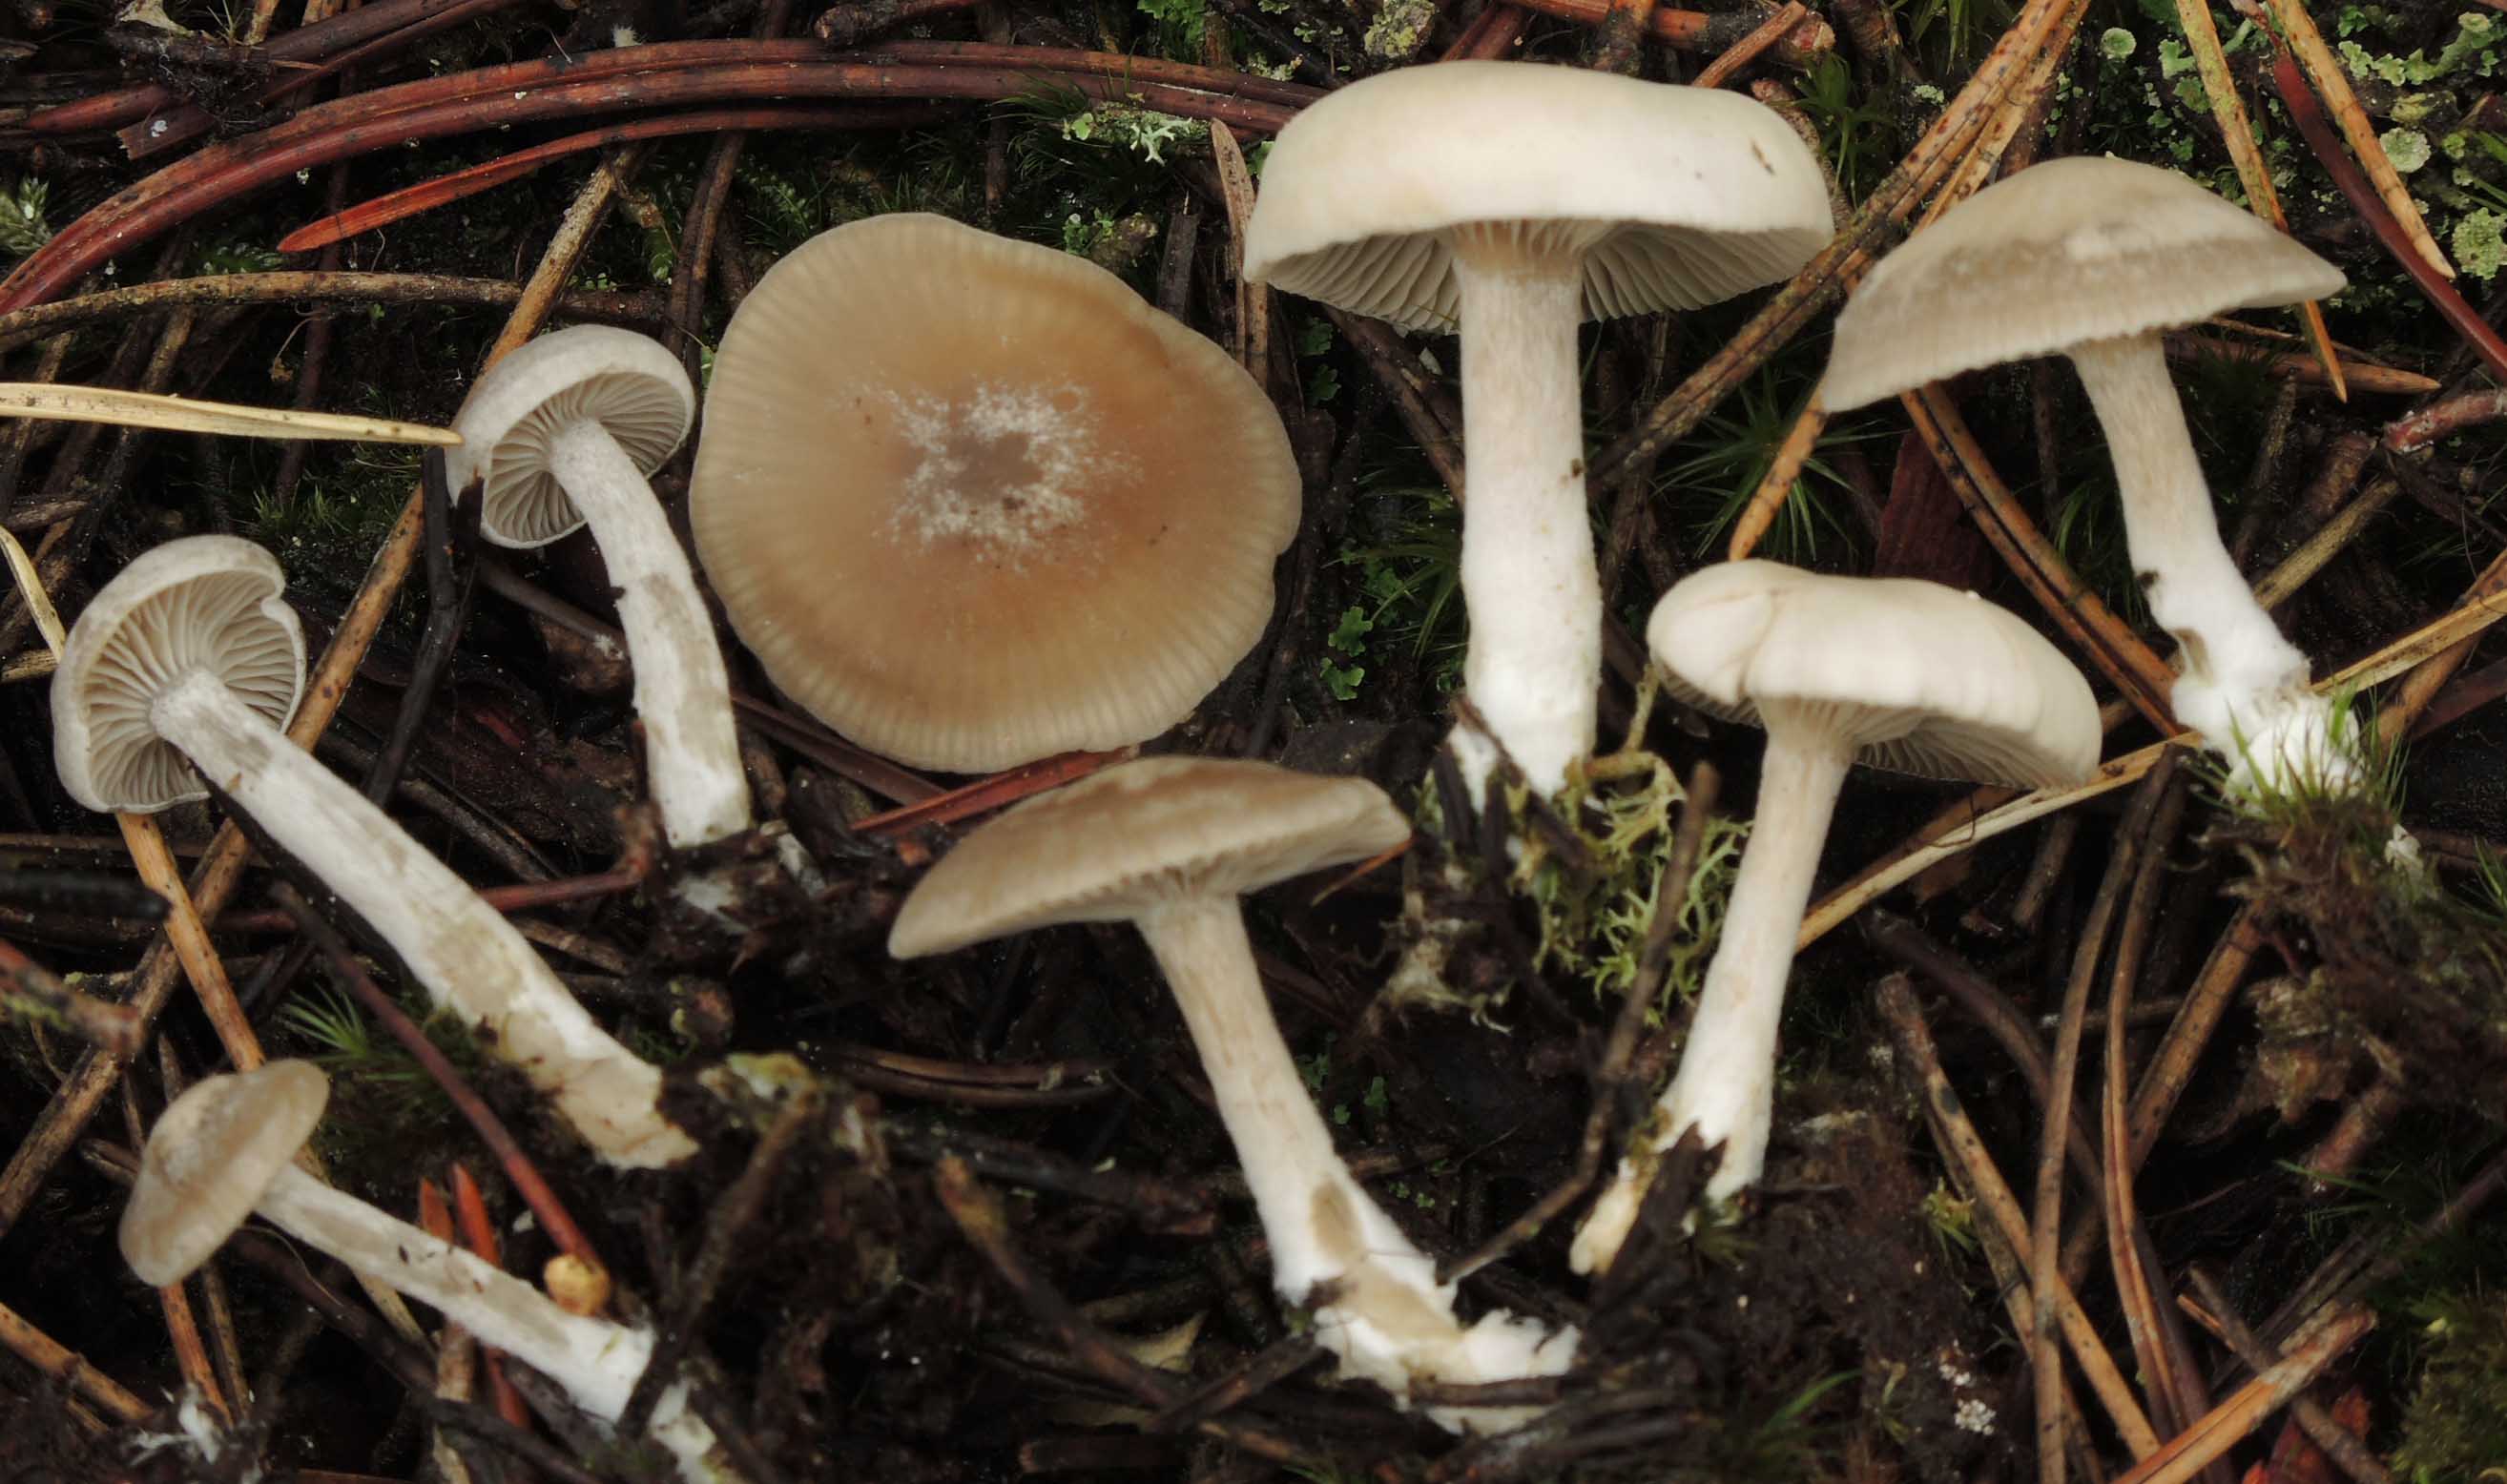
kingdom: Fungi
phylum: Basidiomycota
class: Agaricomycetes
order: Agaricales
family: Tricholomataceae
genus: Clitocybe
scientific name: Clitocybe
